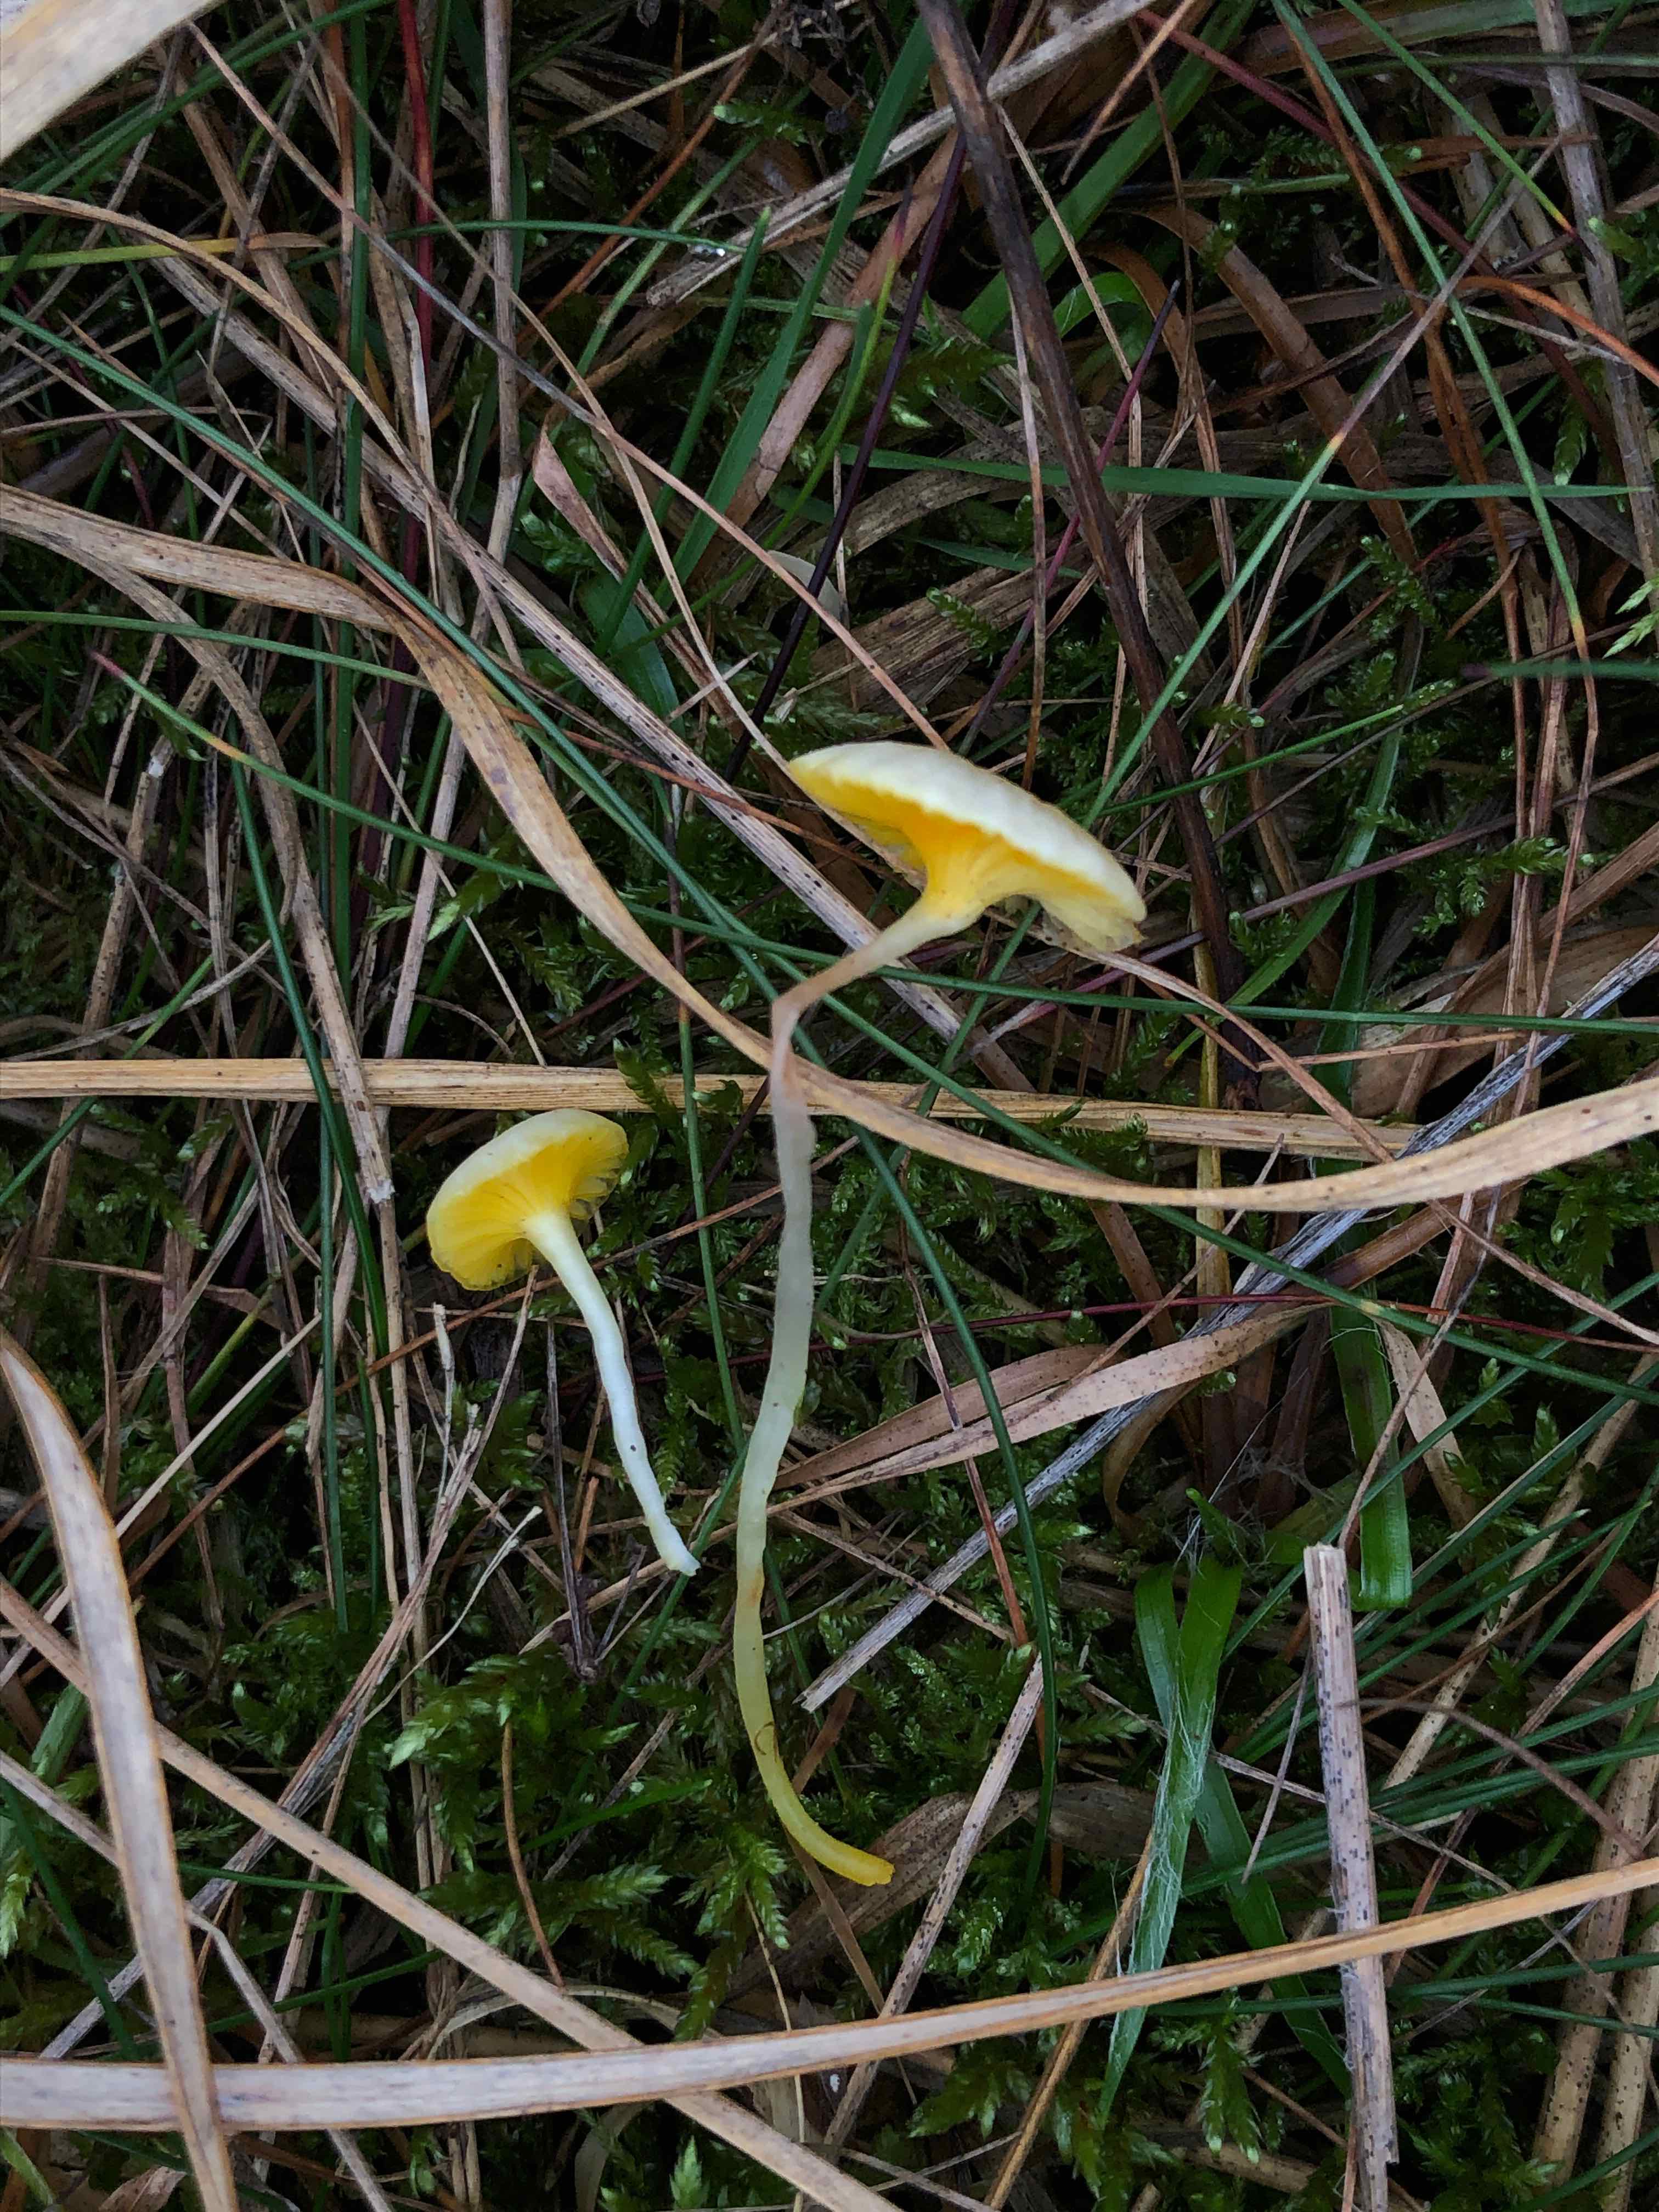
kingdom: Fungi
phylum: Basidiomycota
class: Agaricomycetes
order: Agaricales
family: Hygrophoraceae
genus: Gloioxanthomyces
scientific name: Gloioxanthomyces vitellinus
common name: kromgul vokshat
